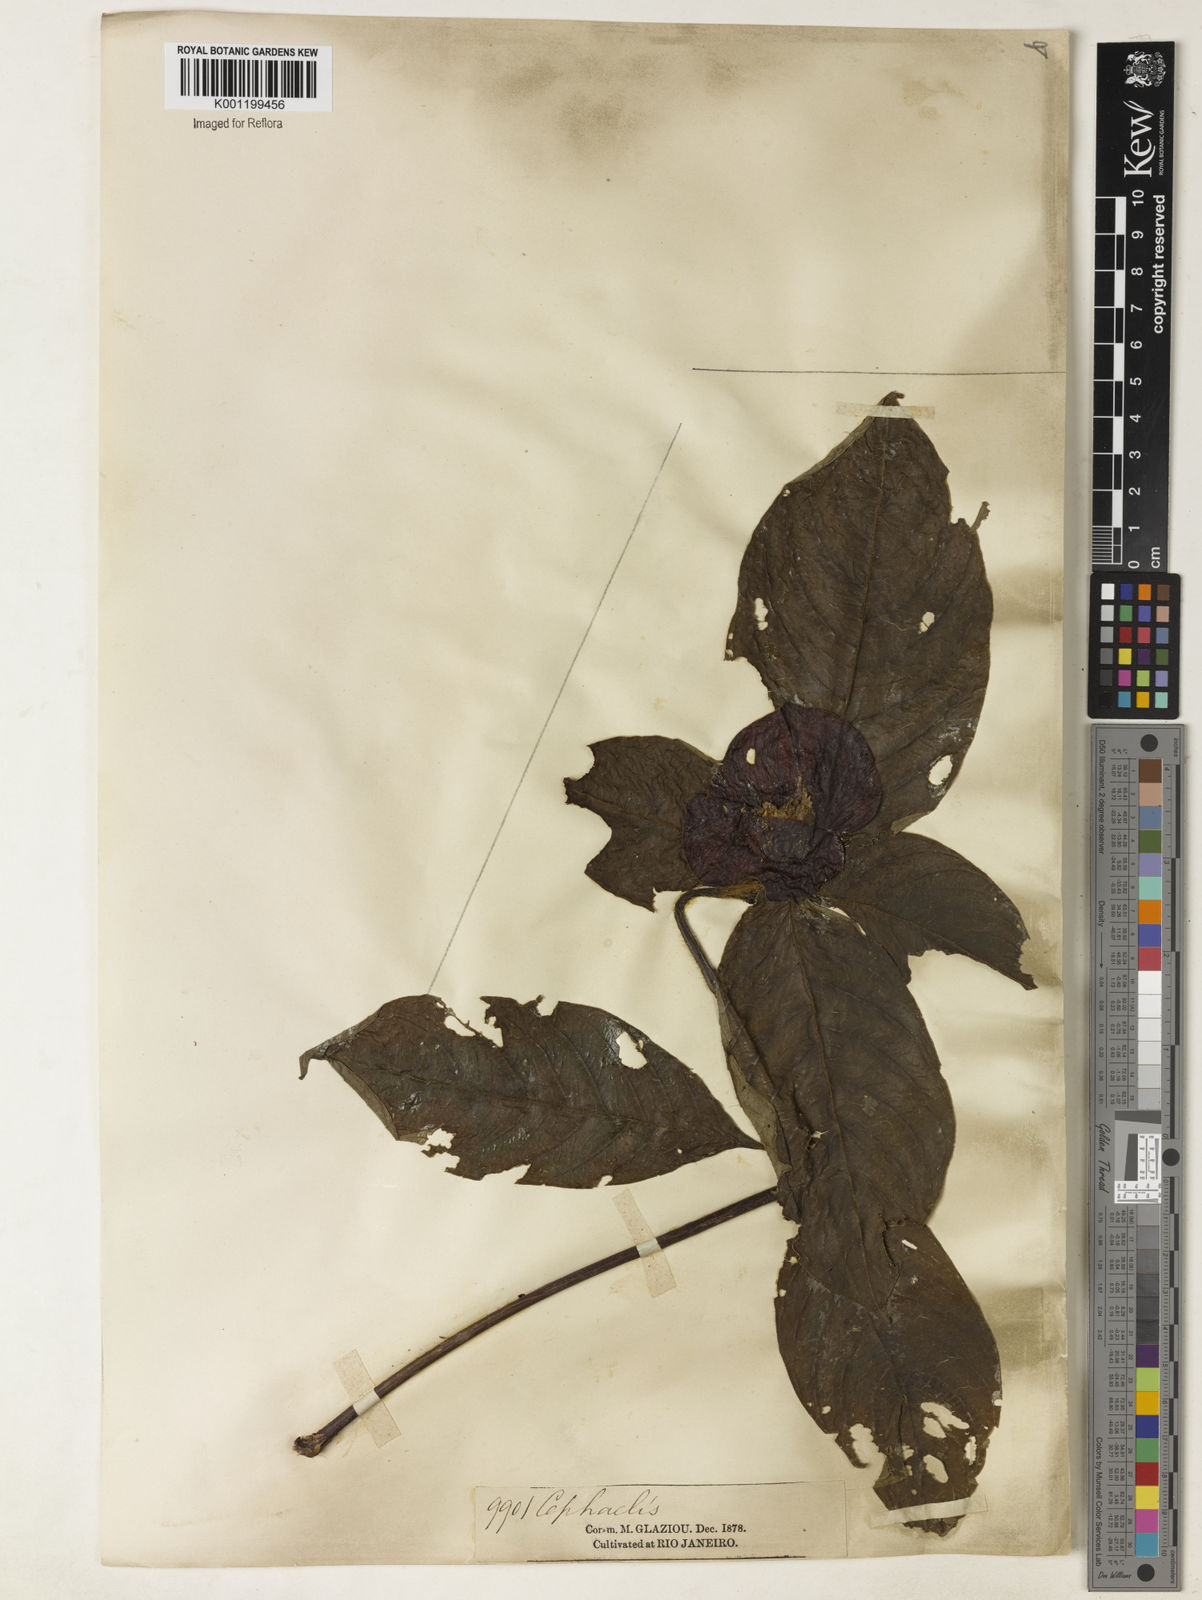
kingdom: Plantae
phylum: Tracheophyta
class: Magnoliopsida
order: Gentianales
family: Rubiaceae
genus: Psychotria
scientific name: Psychotria
